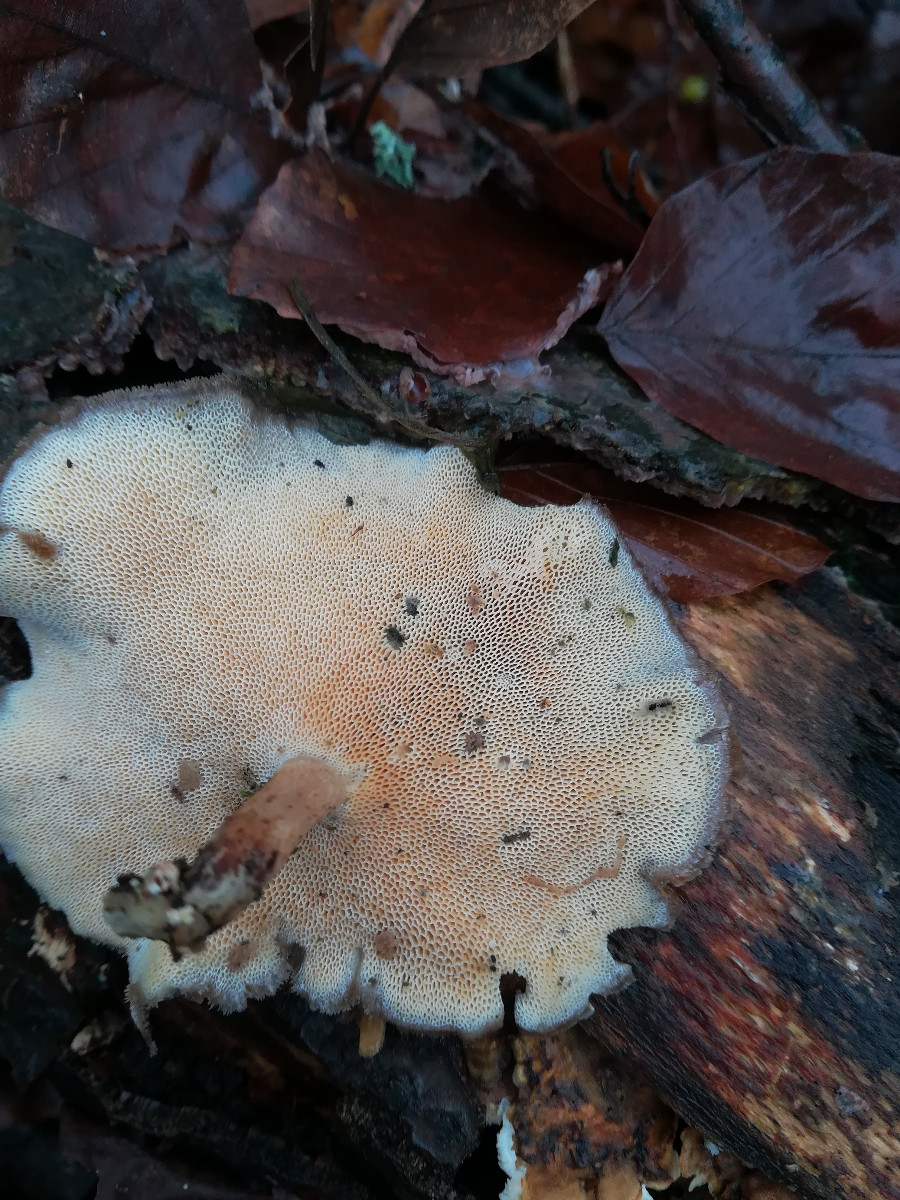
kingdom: Fungi
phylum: Basidiomycota
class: Agaricomycetes
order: Polyporales
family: Polyporaceae
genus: Lentinus
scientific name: Lentinus brumalis
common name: vinter-stilkporesvamp
